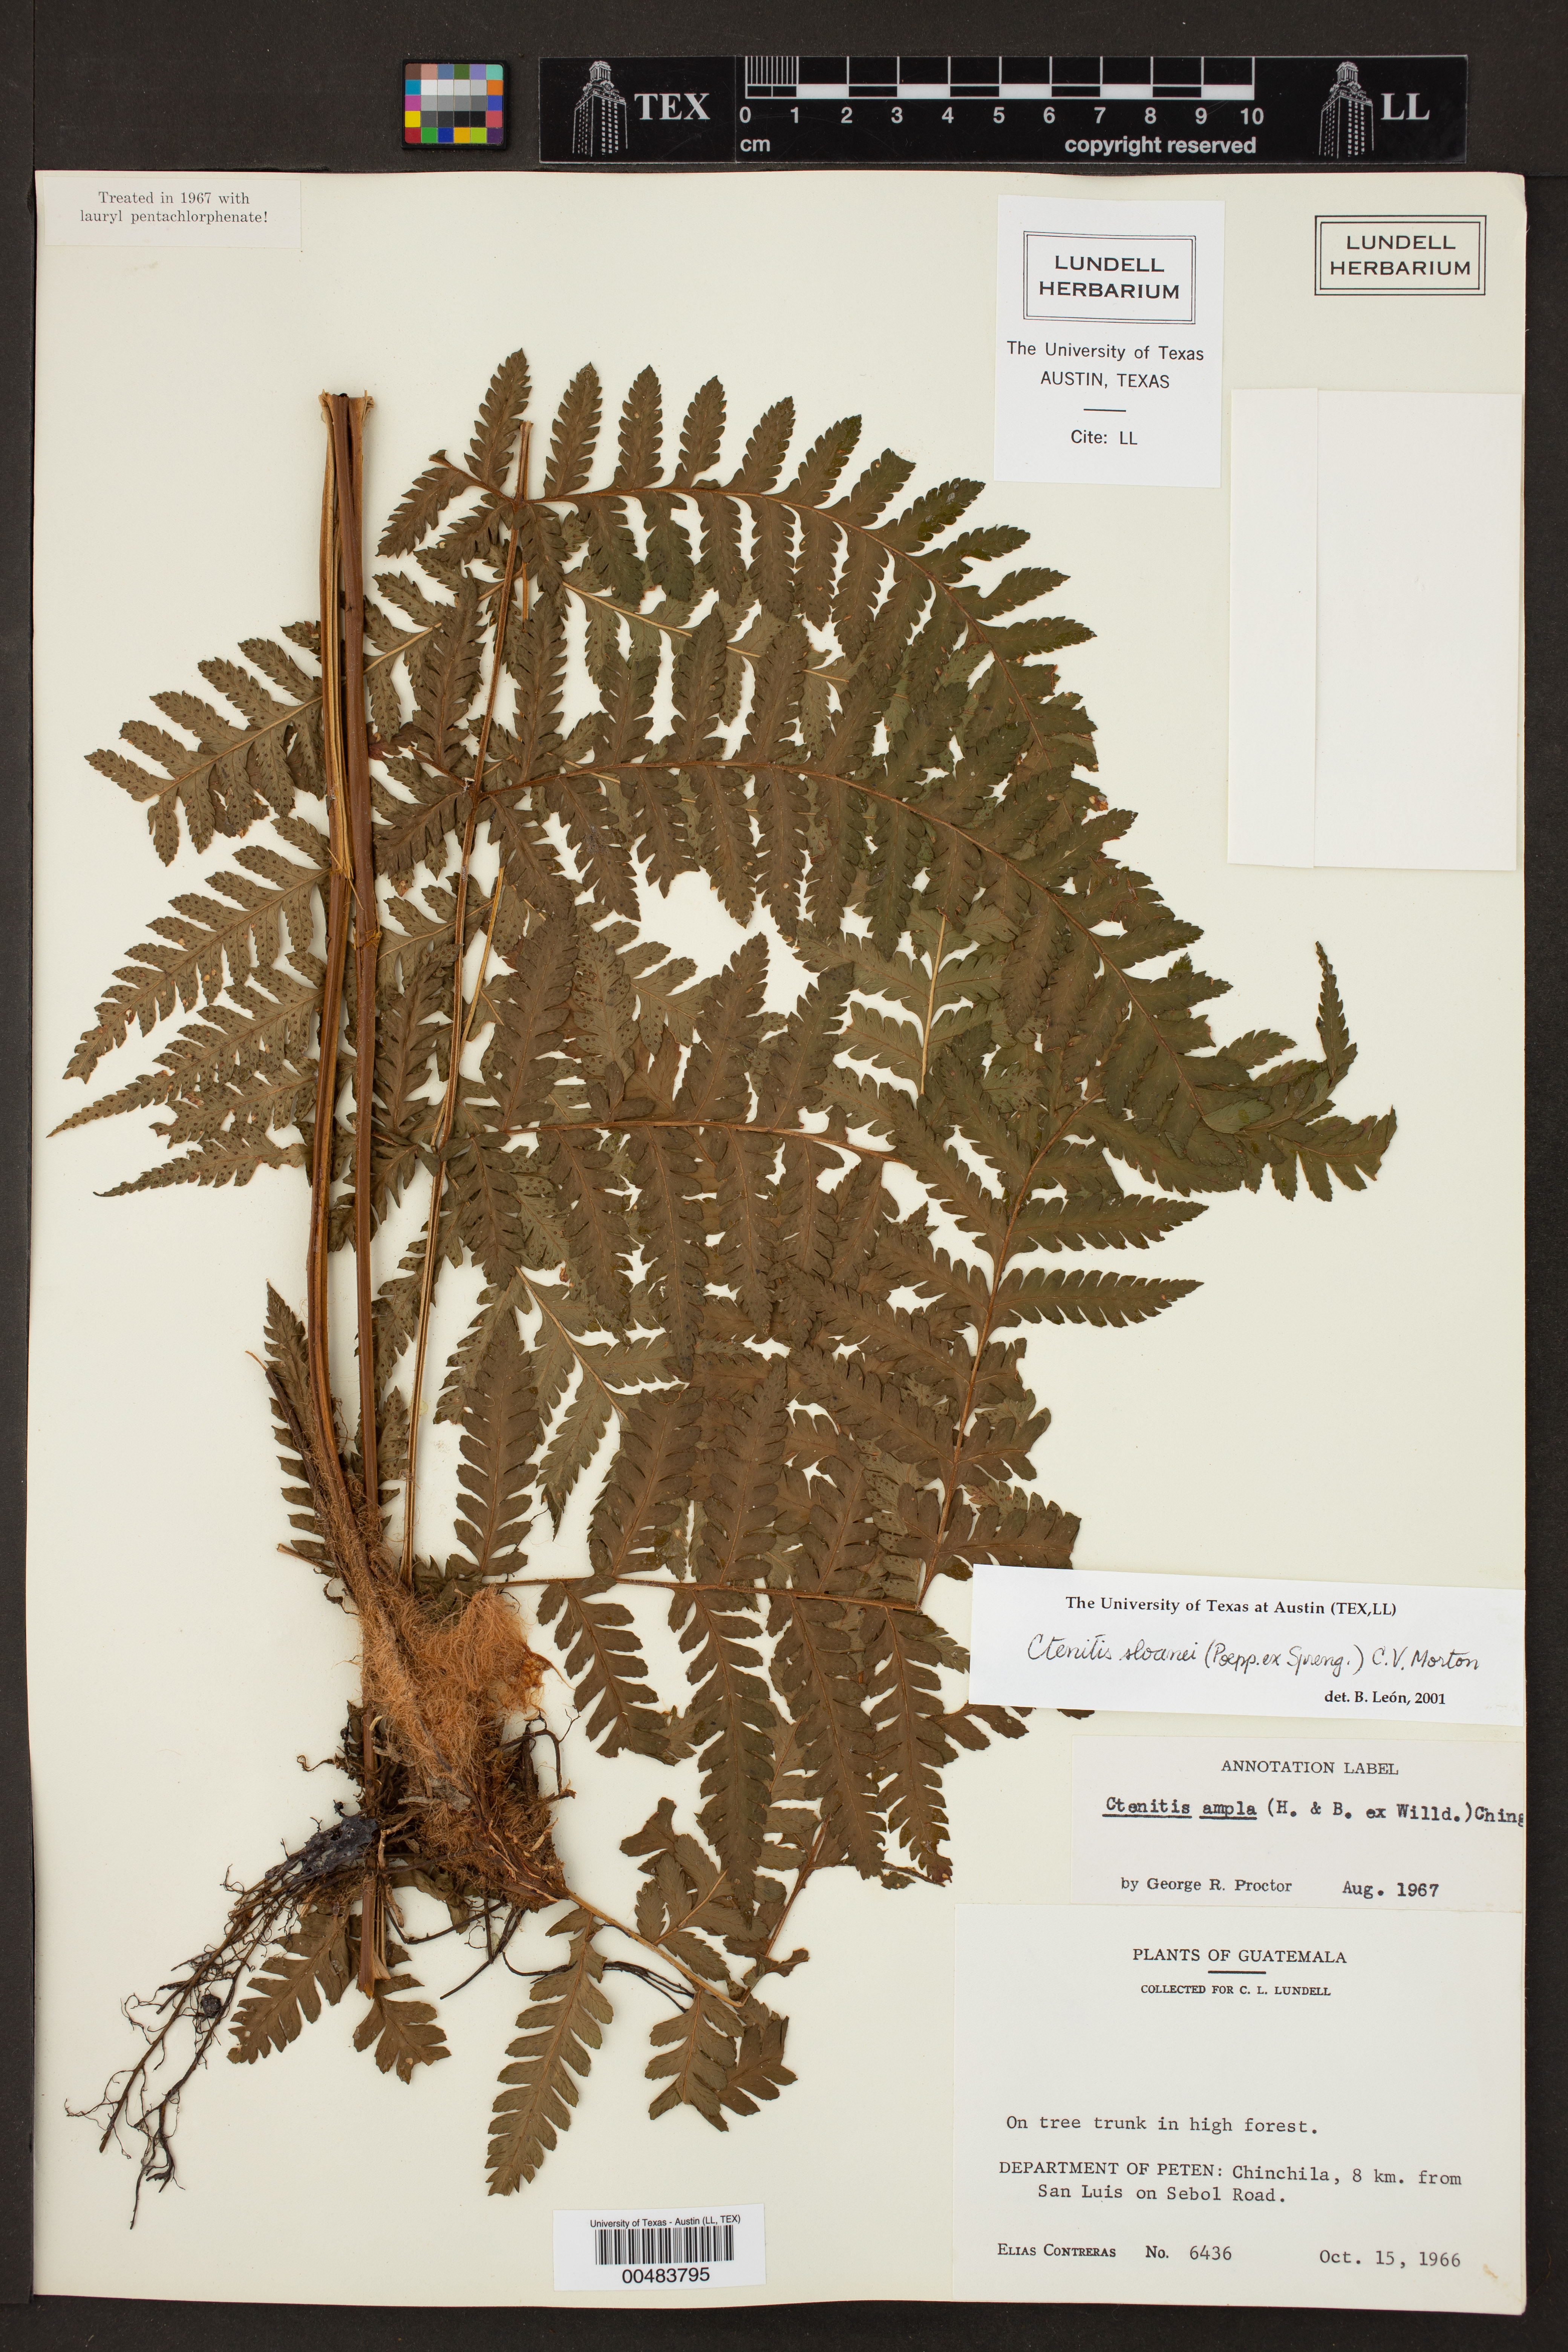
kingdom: Plantae
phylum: Tracheophyta
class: Polypodiopsida
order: Polypodiales
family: Dryopteridaceae
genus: Ctenitis
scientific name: Ctenitis sloanei
